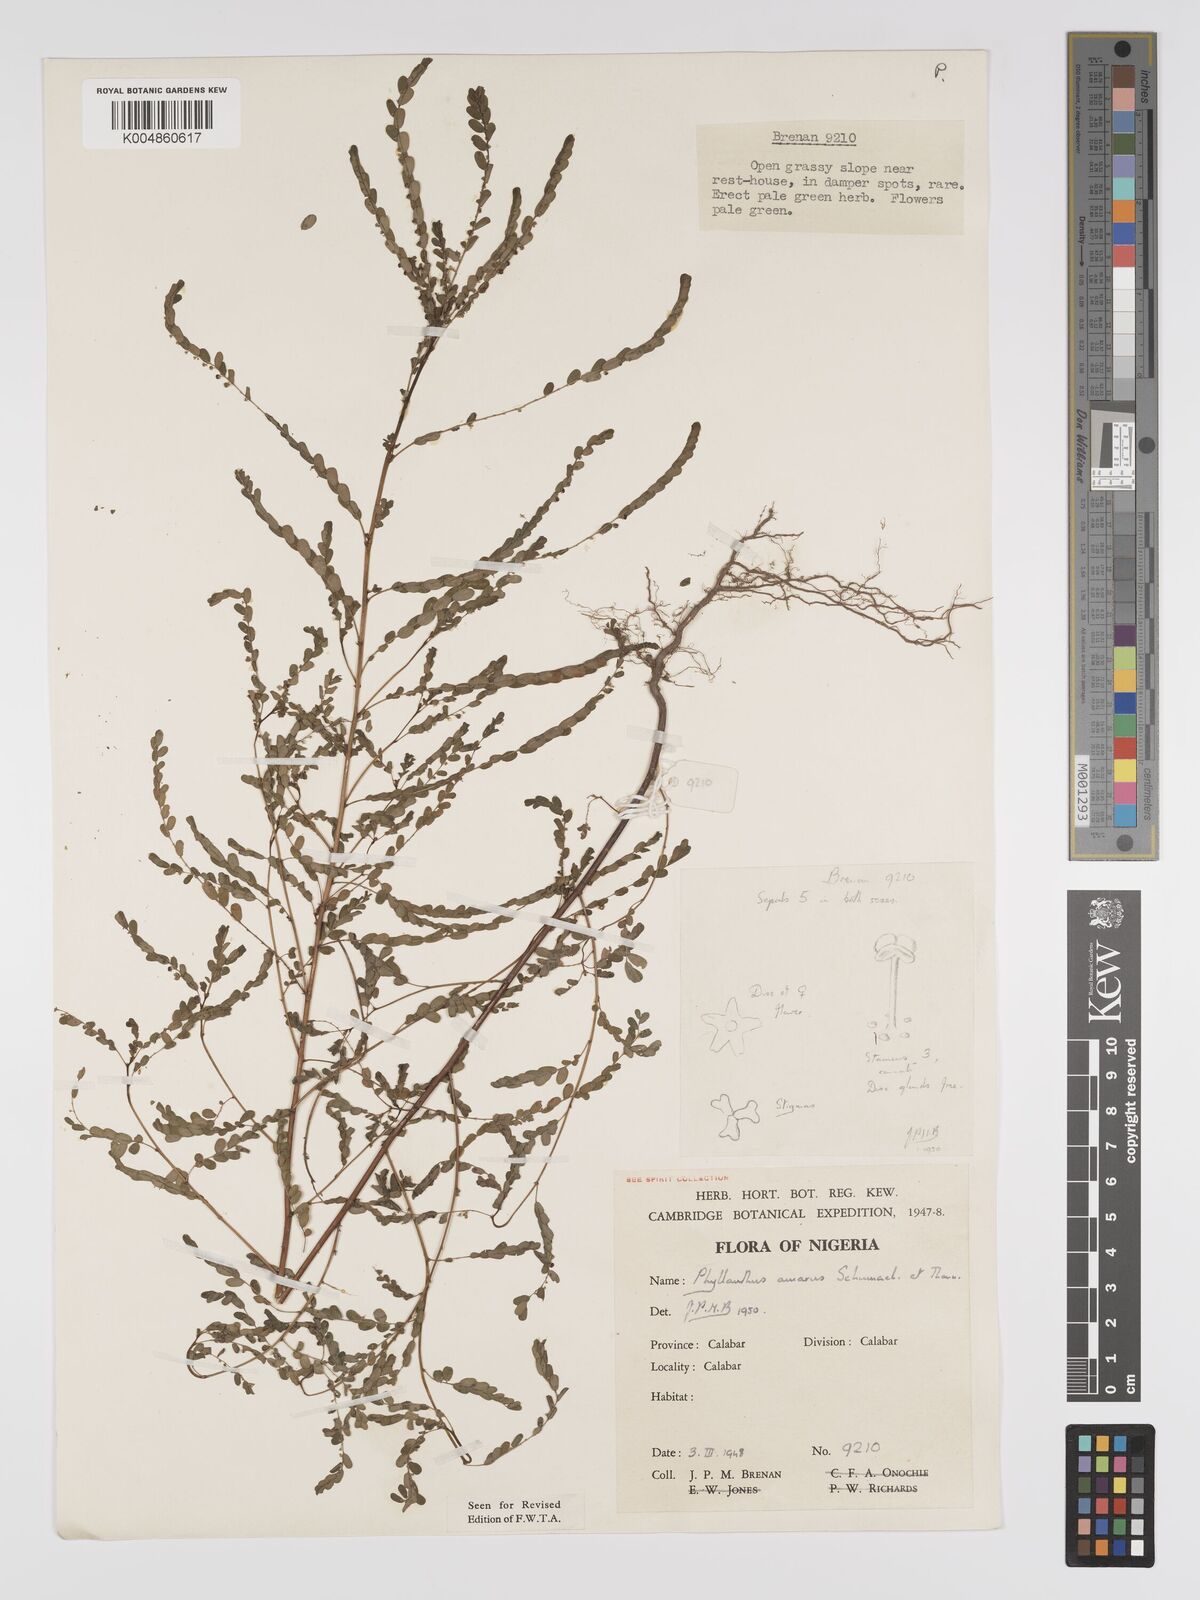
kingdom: Plantae
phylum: Tracheophyta
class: Magnoliopsida
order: Malpighiales
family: Phyllanthaceae
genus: Phyllanthus
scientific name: Phyllanthus amarus
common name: Carry me seed
